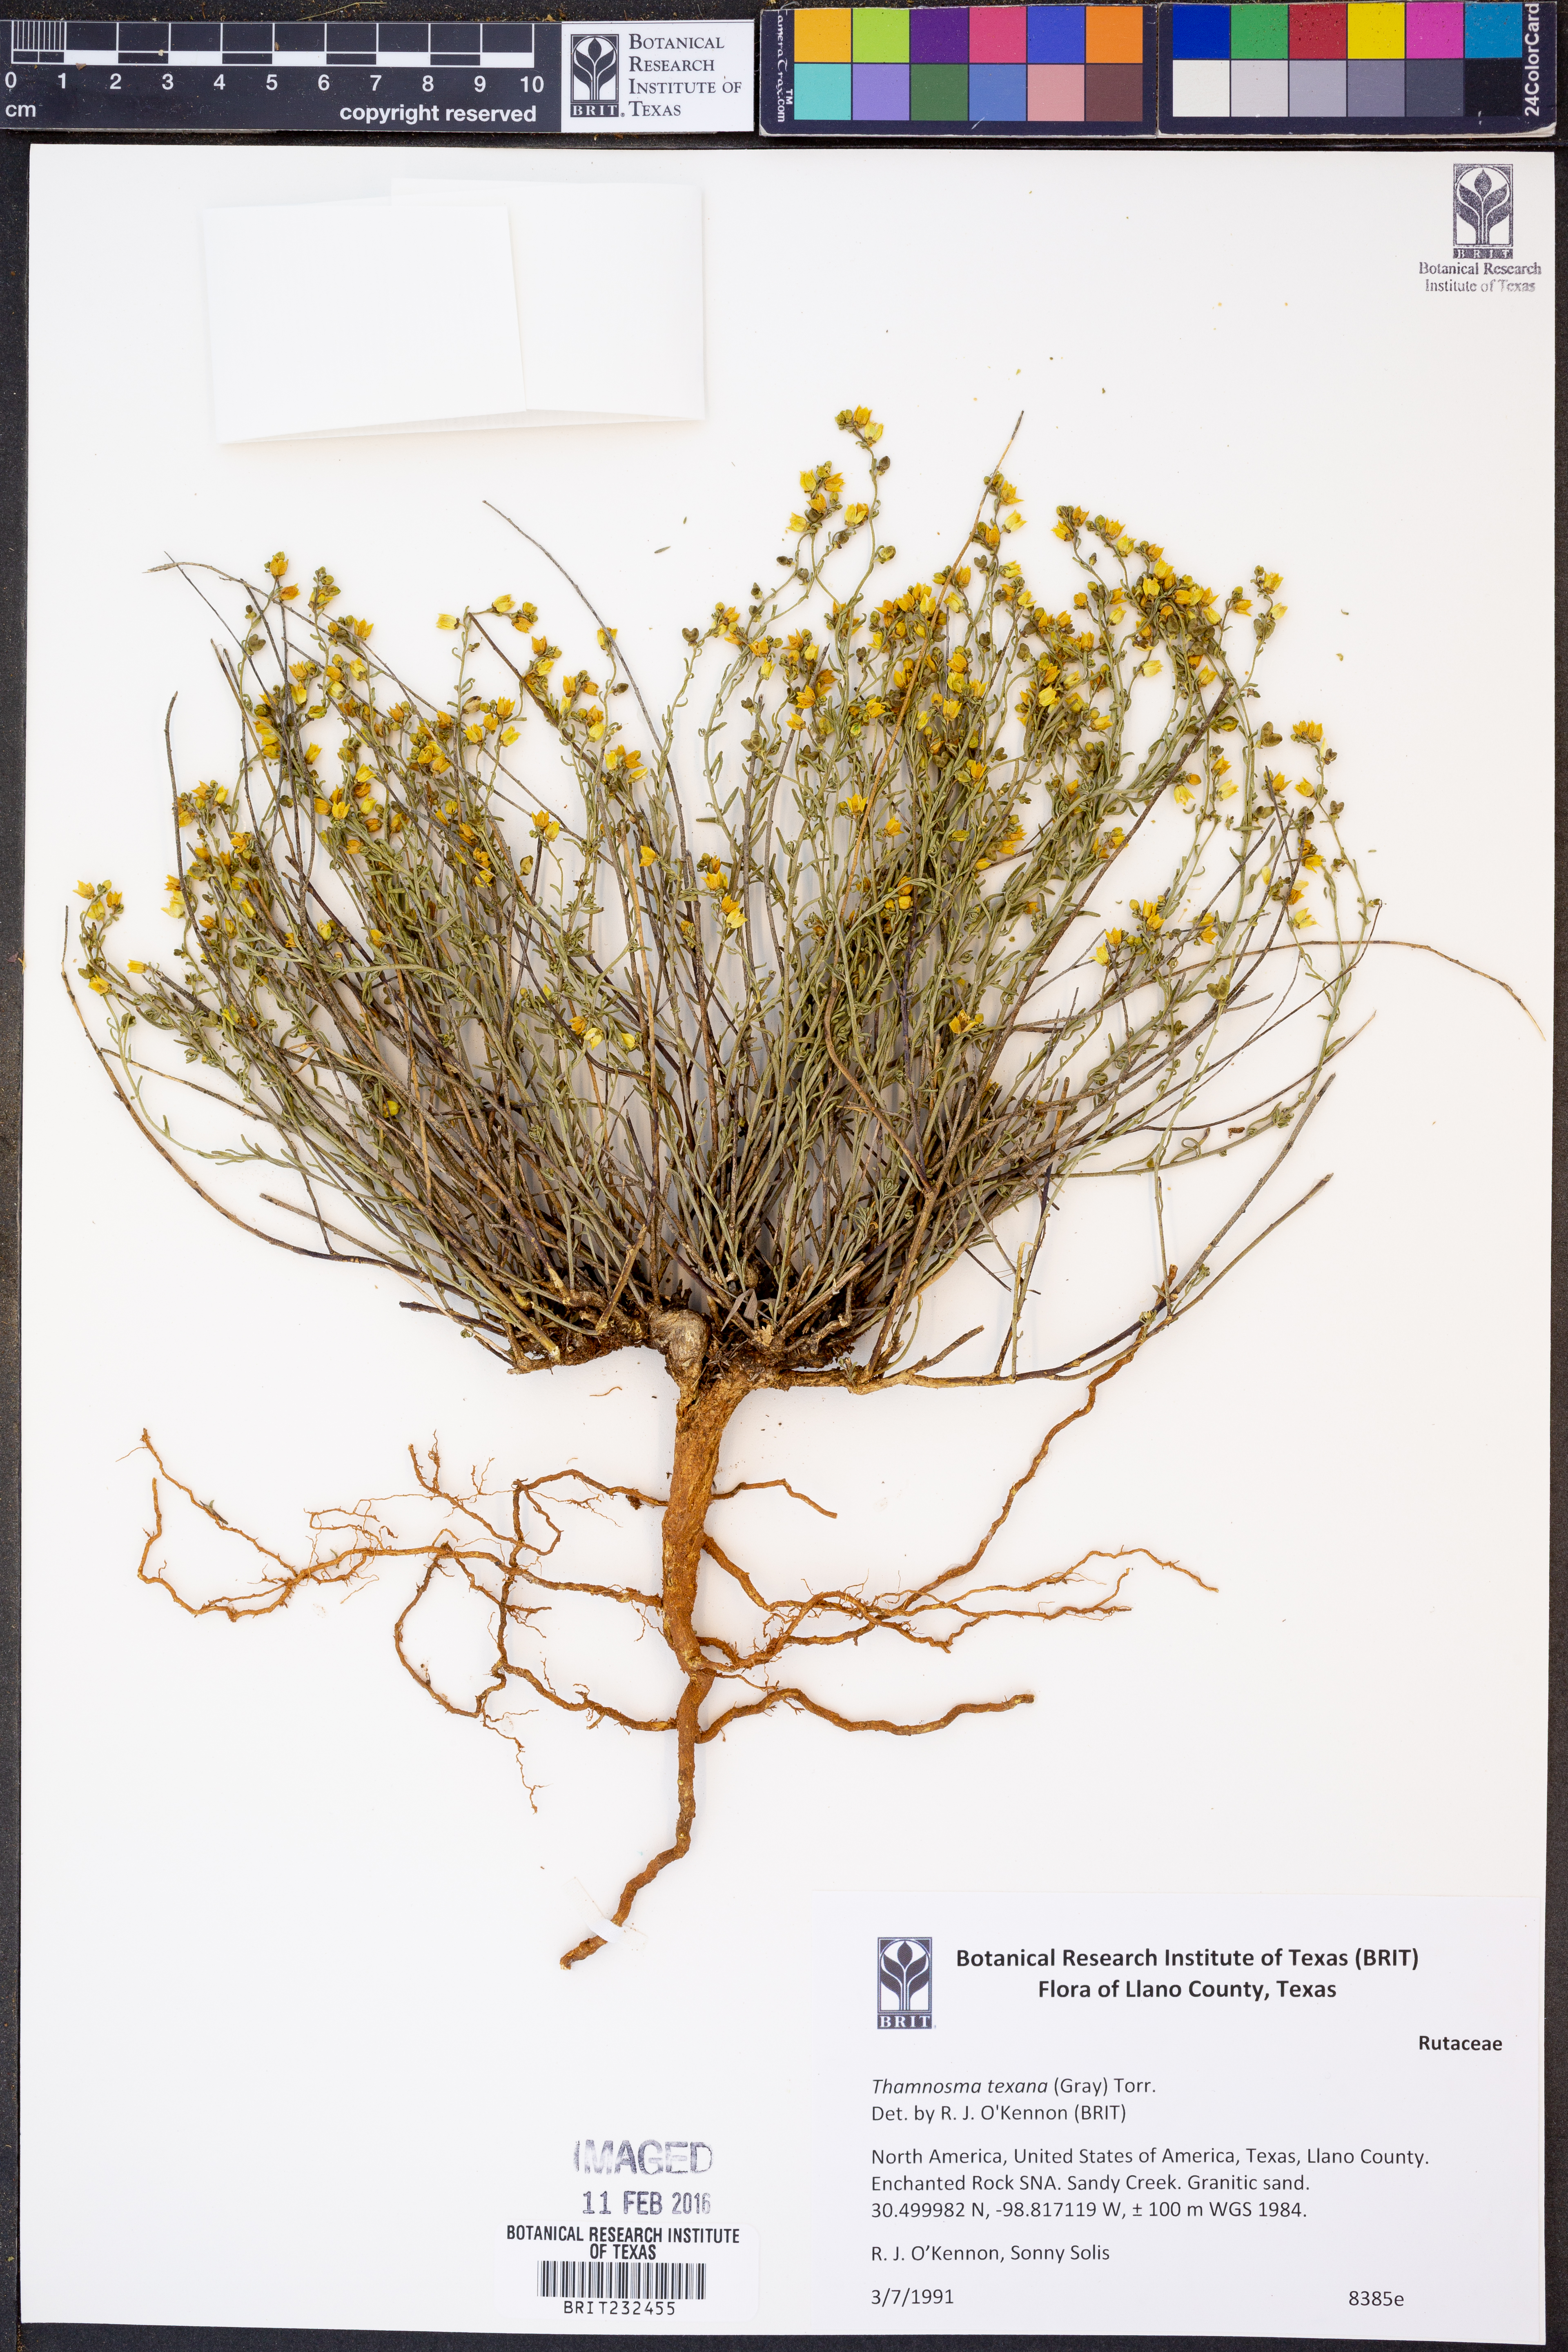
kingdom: Plantae
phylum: Tracheophyta
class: Magnoliopsida
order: Sapindales
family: Rutaceae
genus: Thamnosma
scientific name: Thamnosma texana
